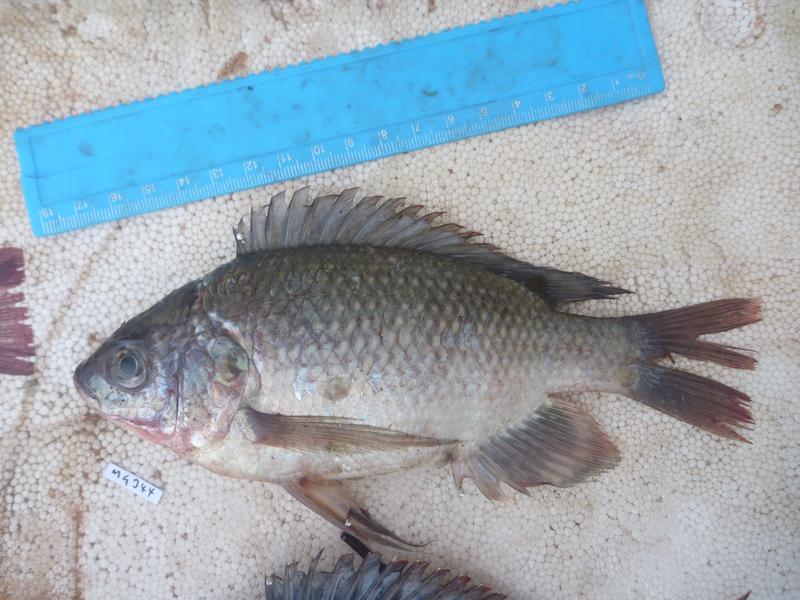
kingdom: Animalia
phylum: Chordata
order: Perciformes
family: Cichlidae
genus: Oreochromis
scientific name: Oreochromis esculentus
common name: Carp
